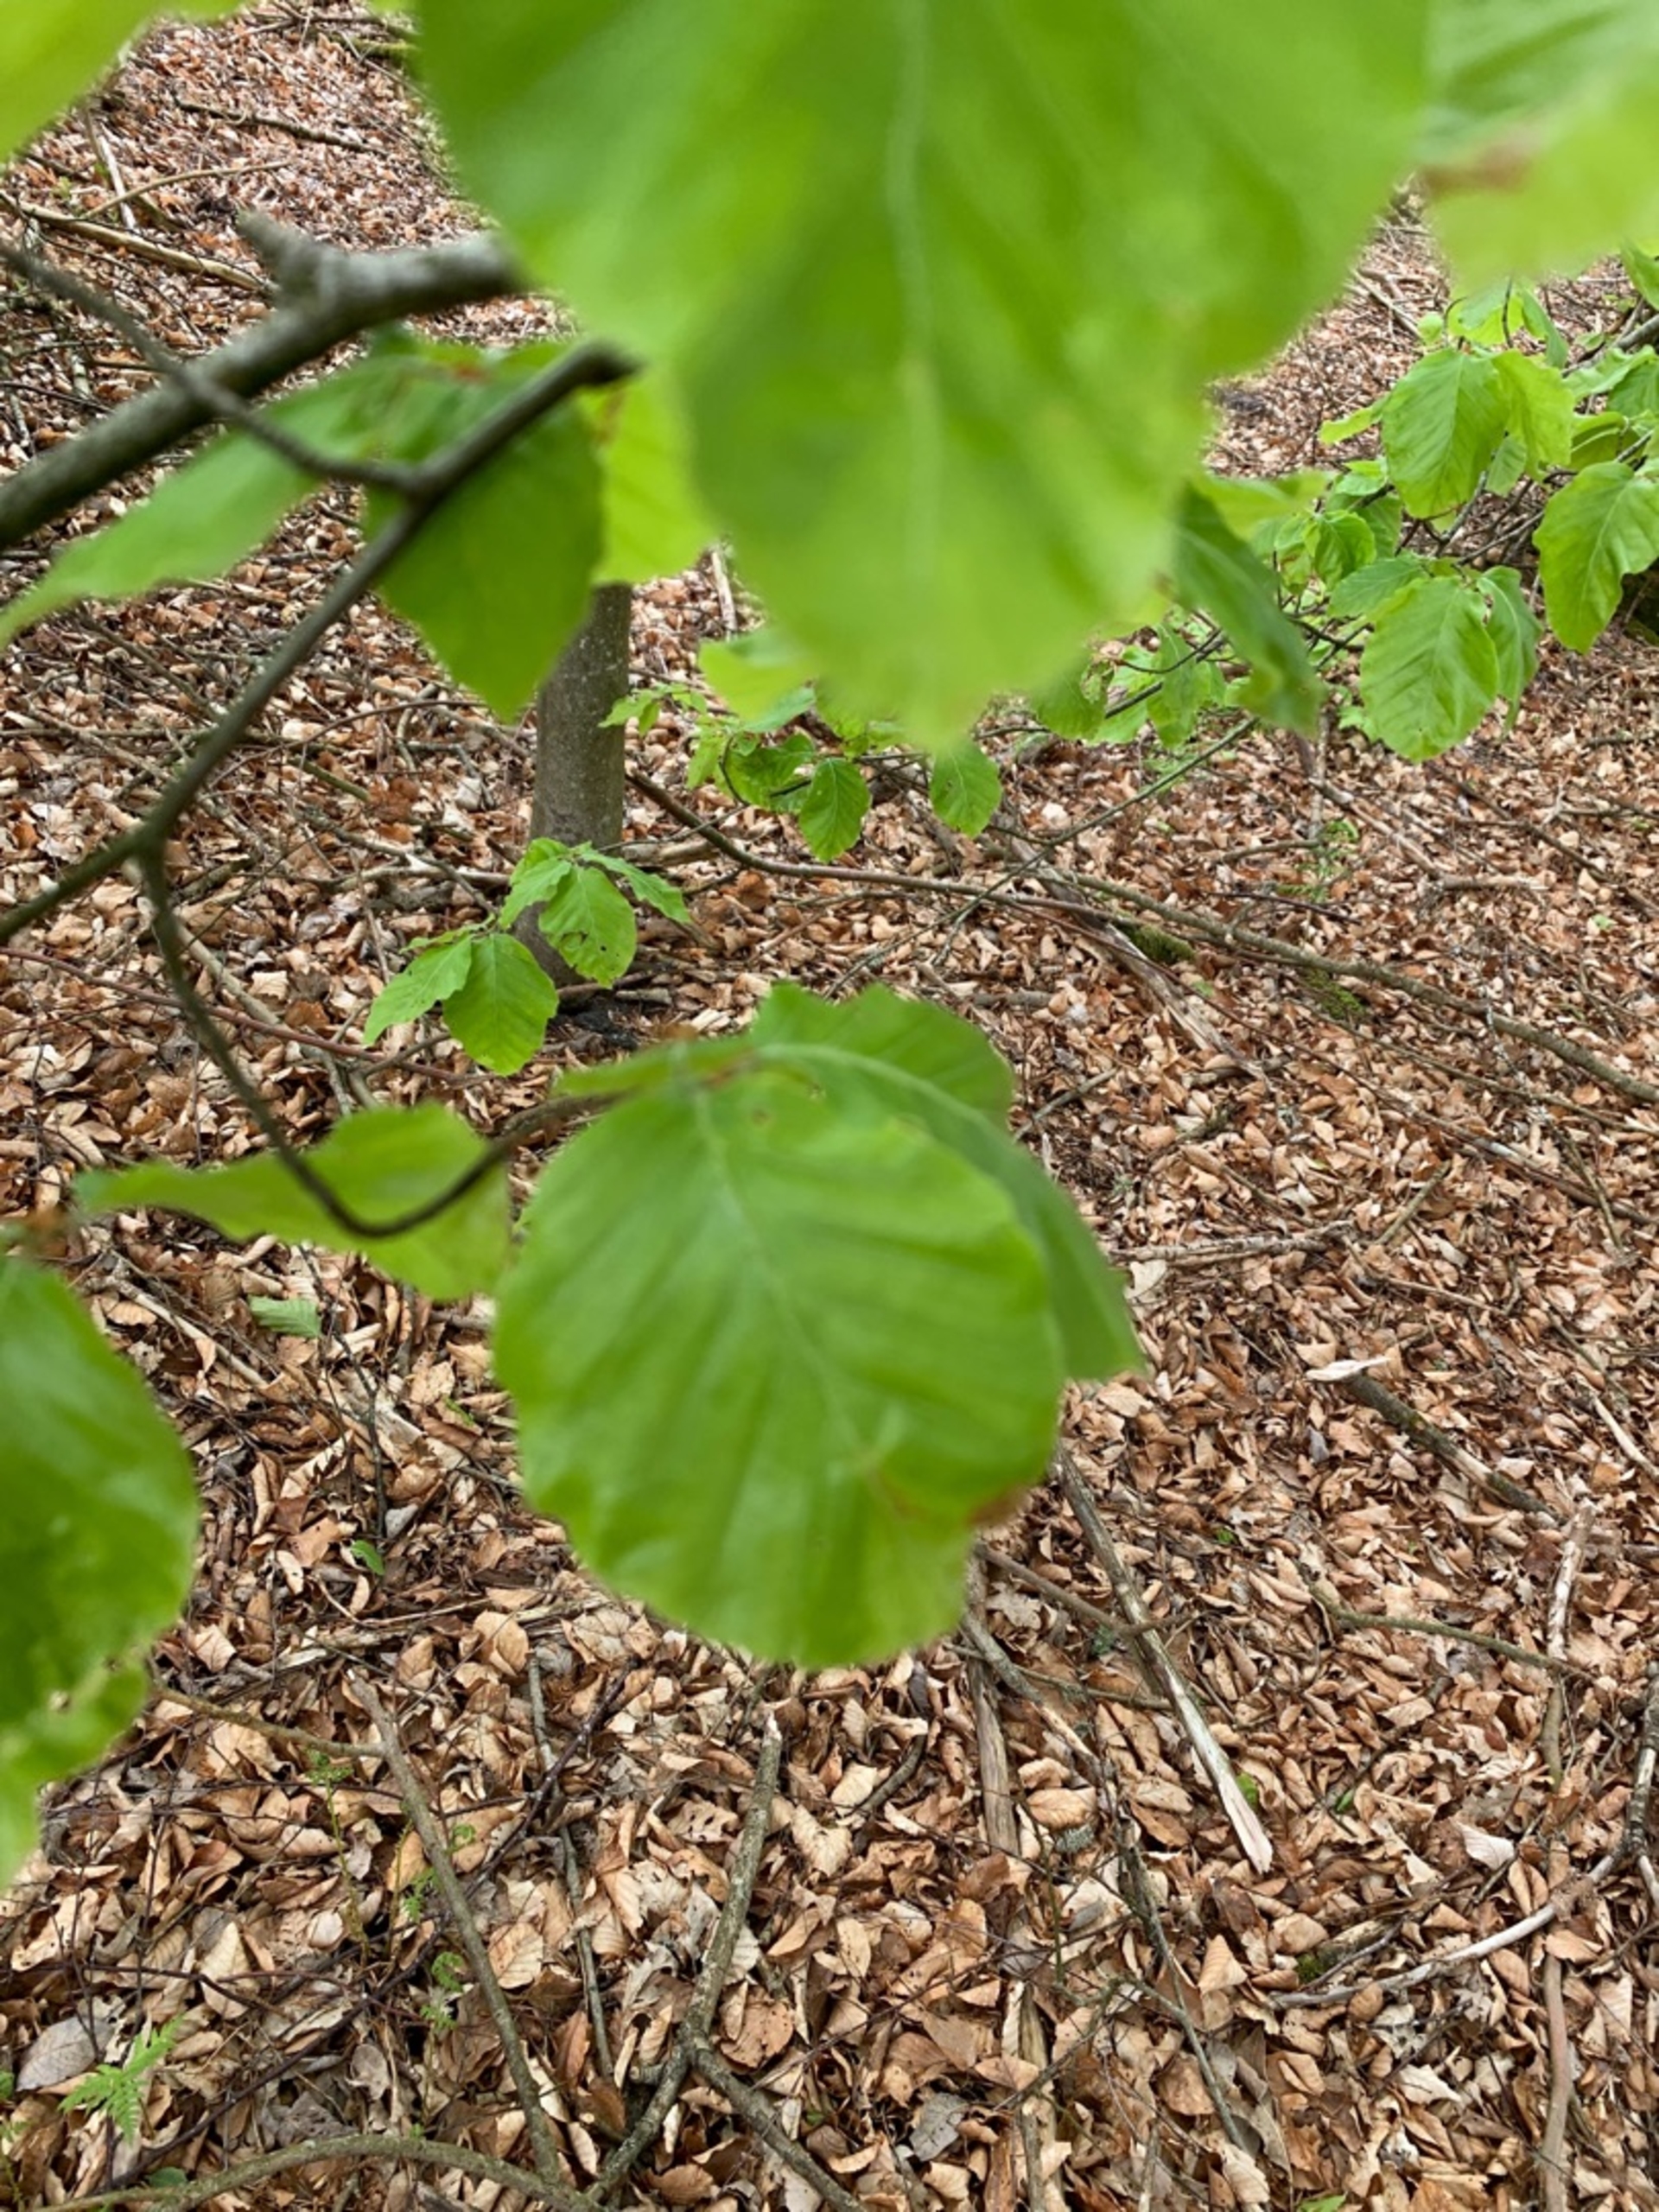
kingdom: Plantae
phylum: Tracheophyta
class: Magnoliopsida
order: Fagales
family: Fagaceae
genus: Fagus
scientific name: Fagus sylvatica
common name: Bøg
